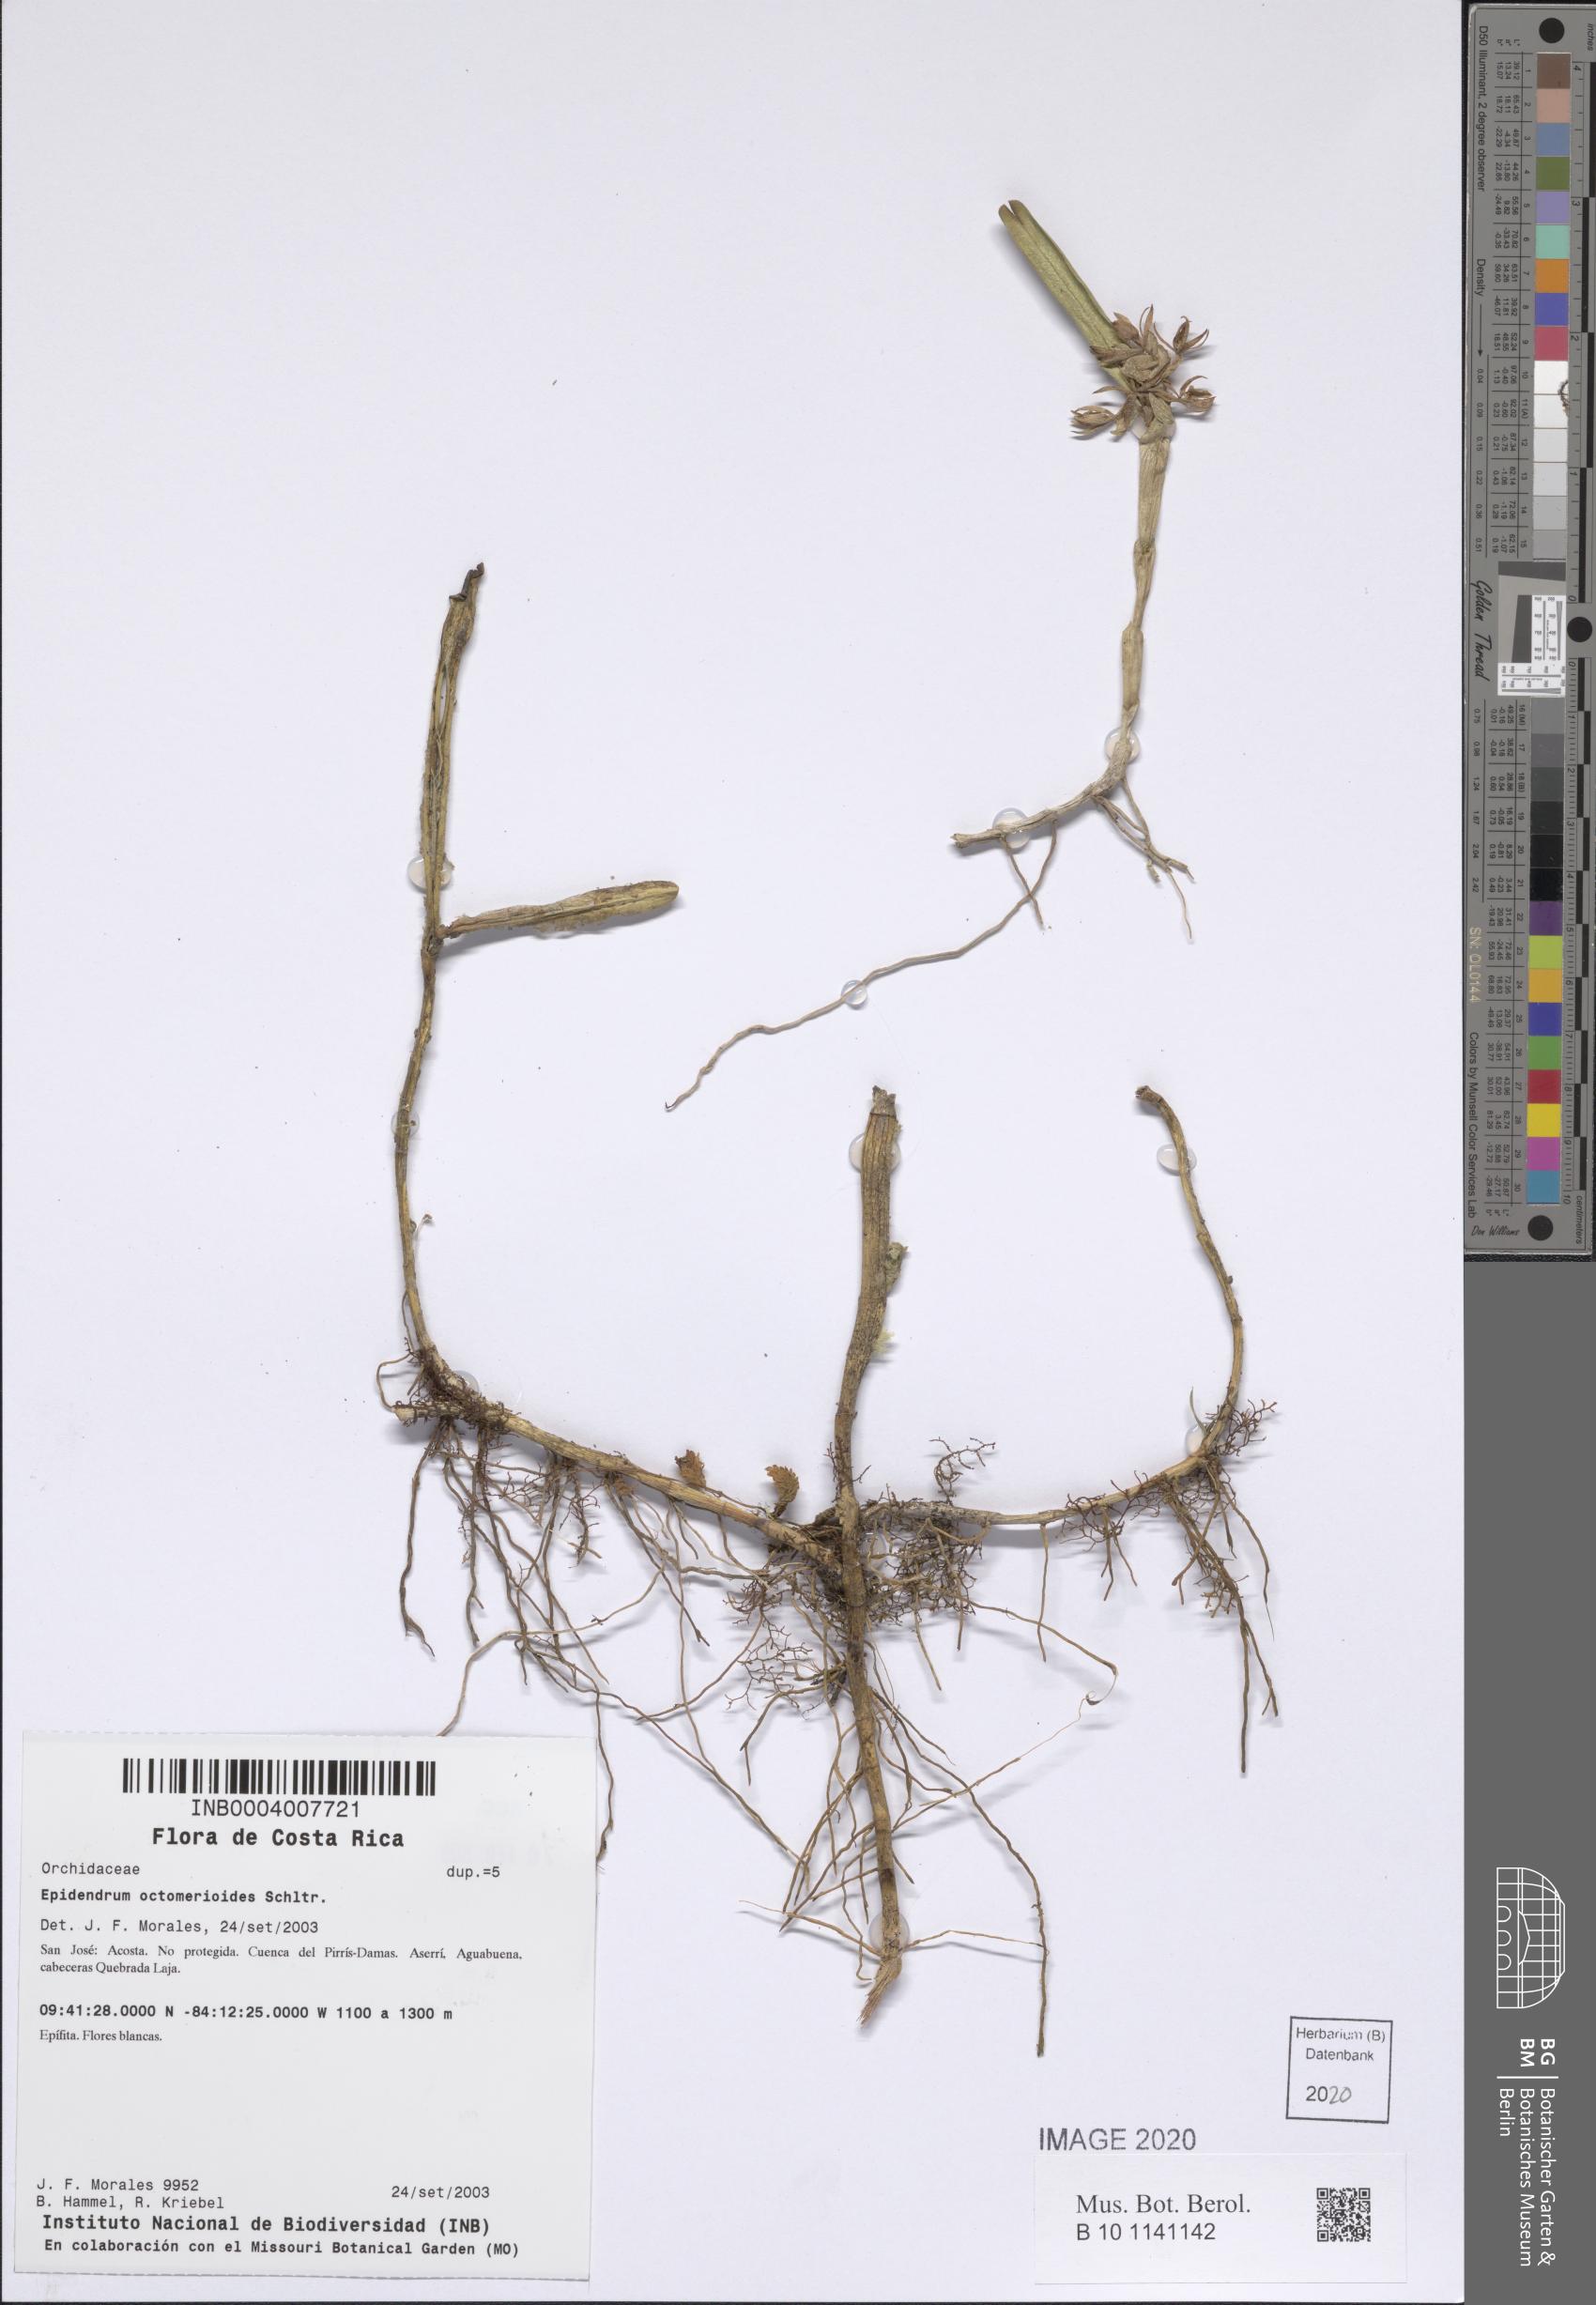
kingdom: Plantae
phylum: Tracheophyta
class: Liliopsida
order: Asparagales
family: Orchidaceae
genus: Epidendrum
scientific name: Epidendrum octomerioides
